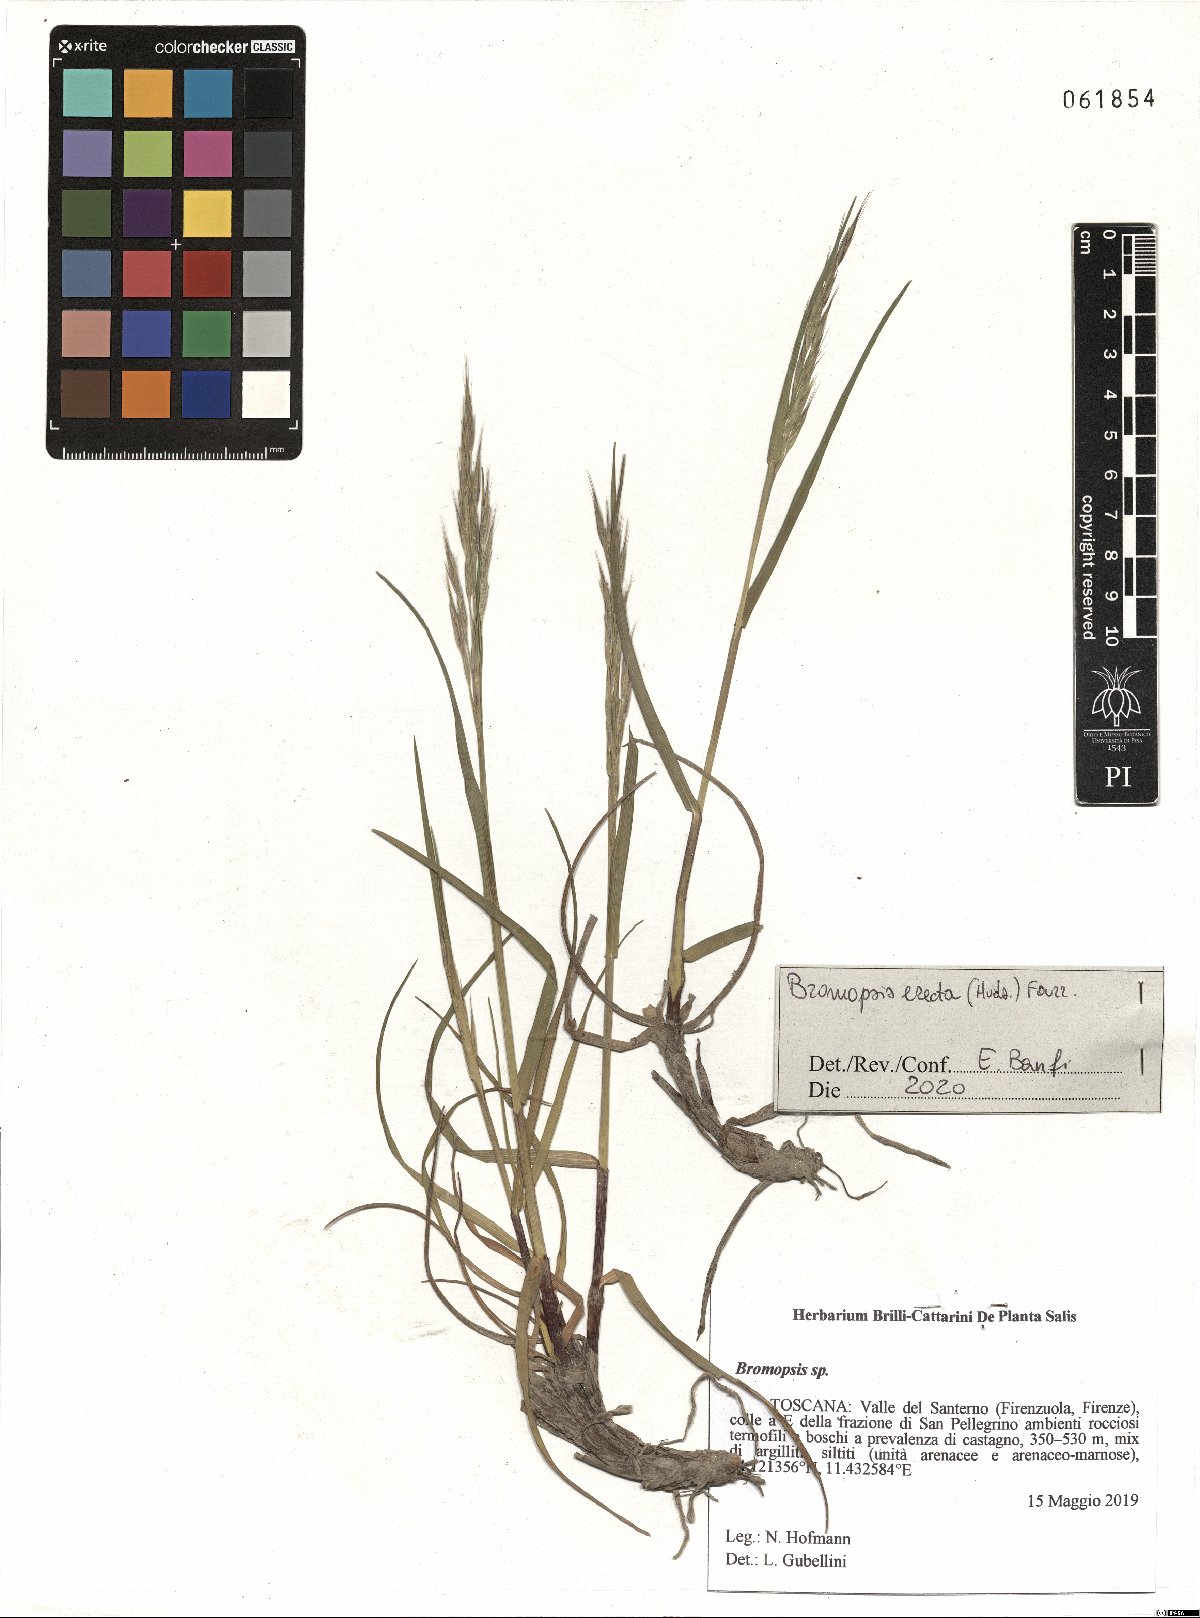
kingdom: Plantae
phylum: Tracheophyta
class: Liliopsida
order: Poales
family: Poaceae
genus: Bromus
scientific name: Bromus erectus
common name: Erect brome
